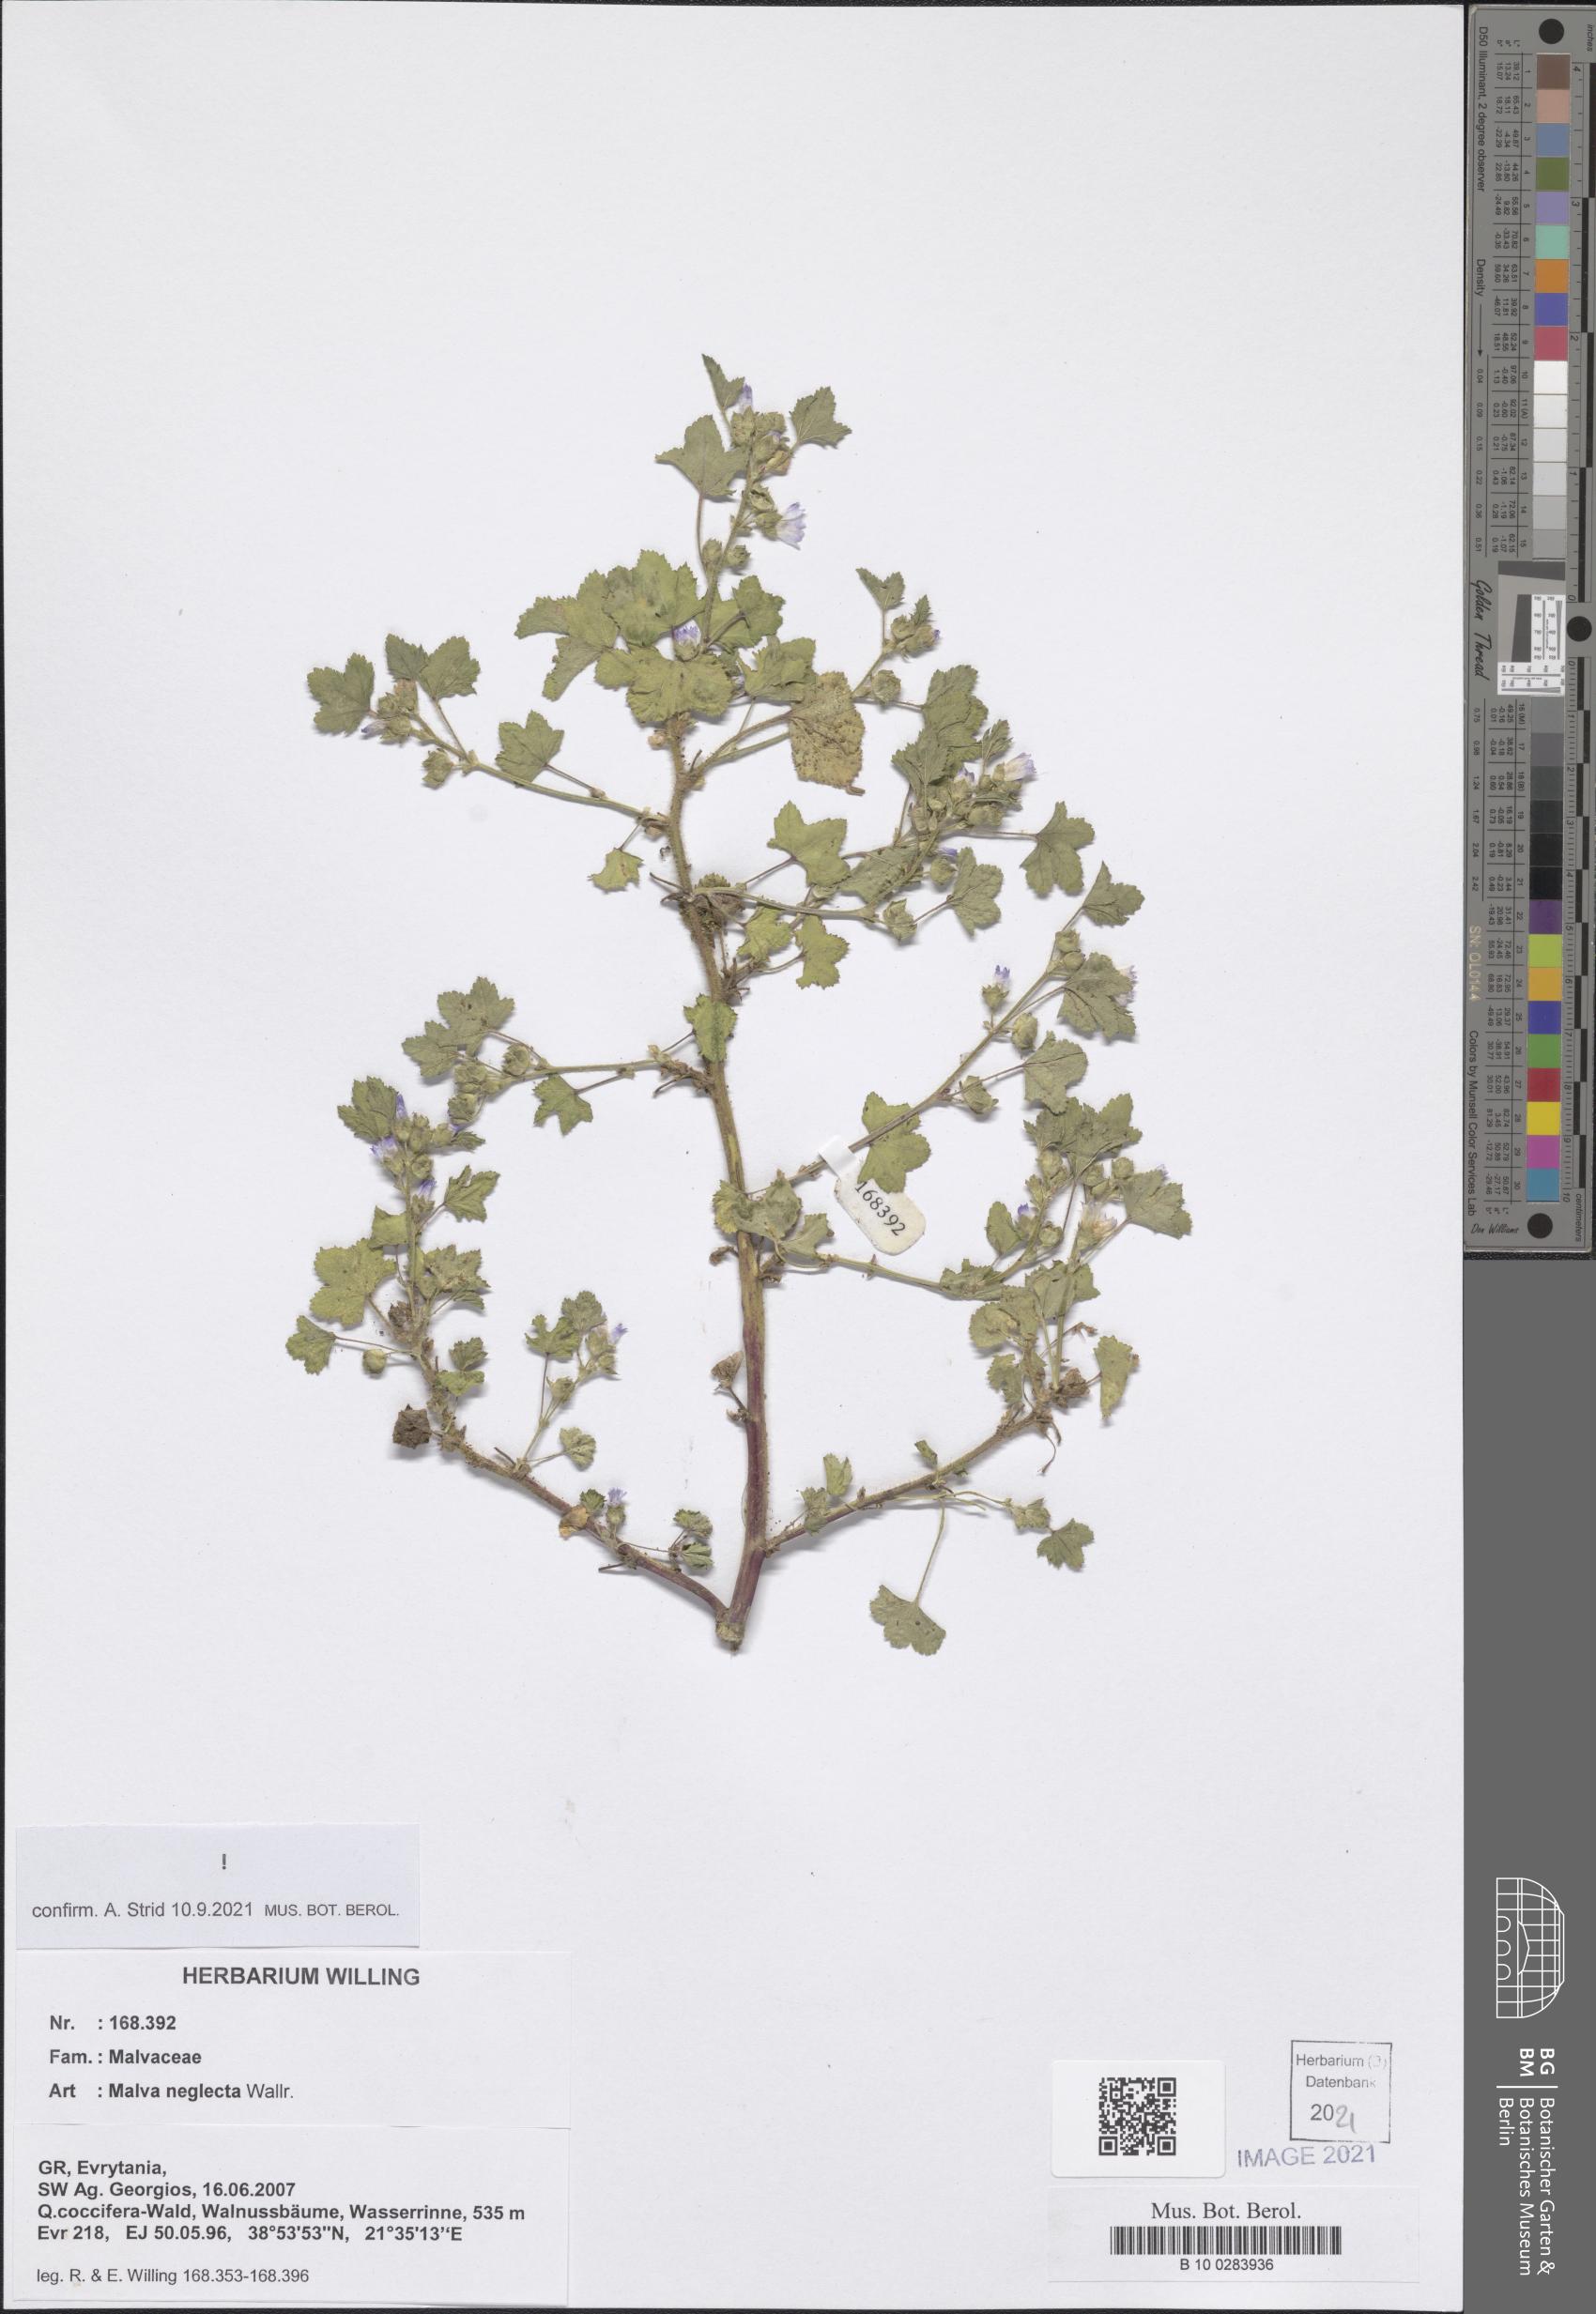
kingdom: Plantae
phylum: Tracheophyta
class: Magnoliopsida
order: Malvales
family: Malvaceae
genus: Malva
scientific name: Malva neglecta
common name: Common mallow
